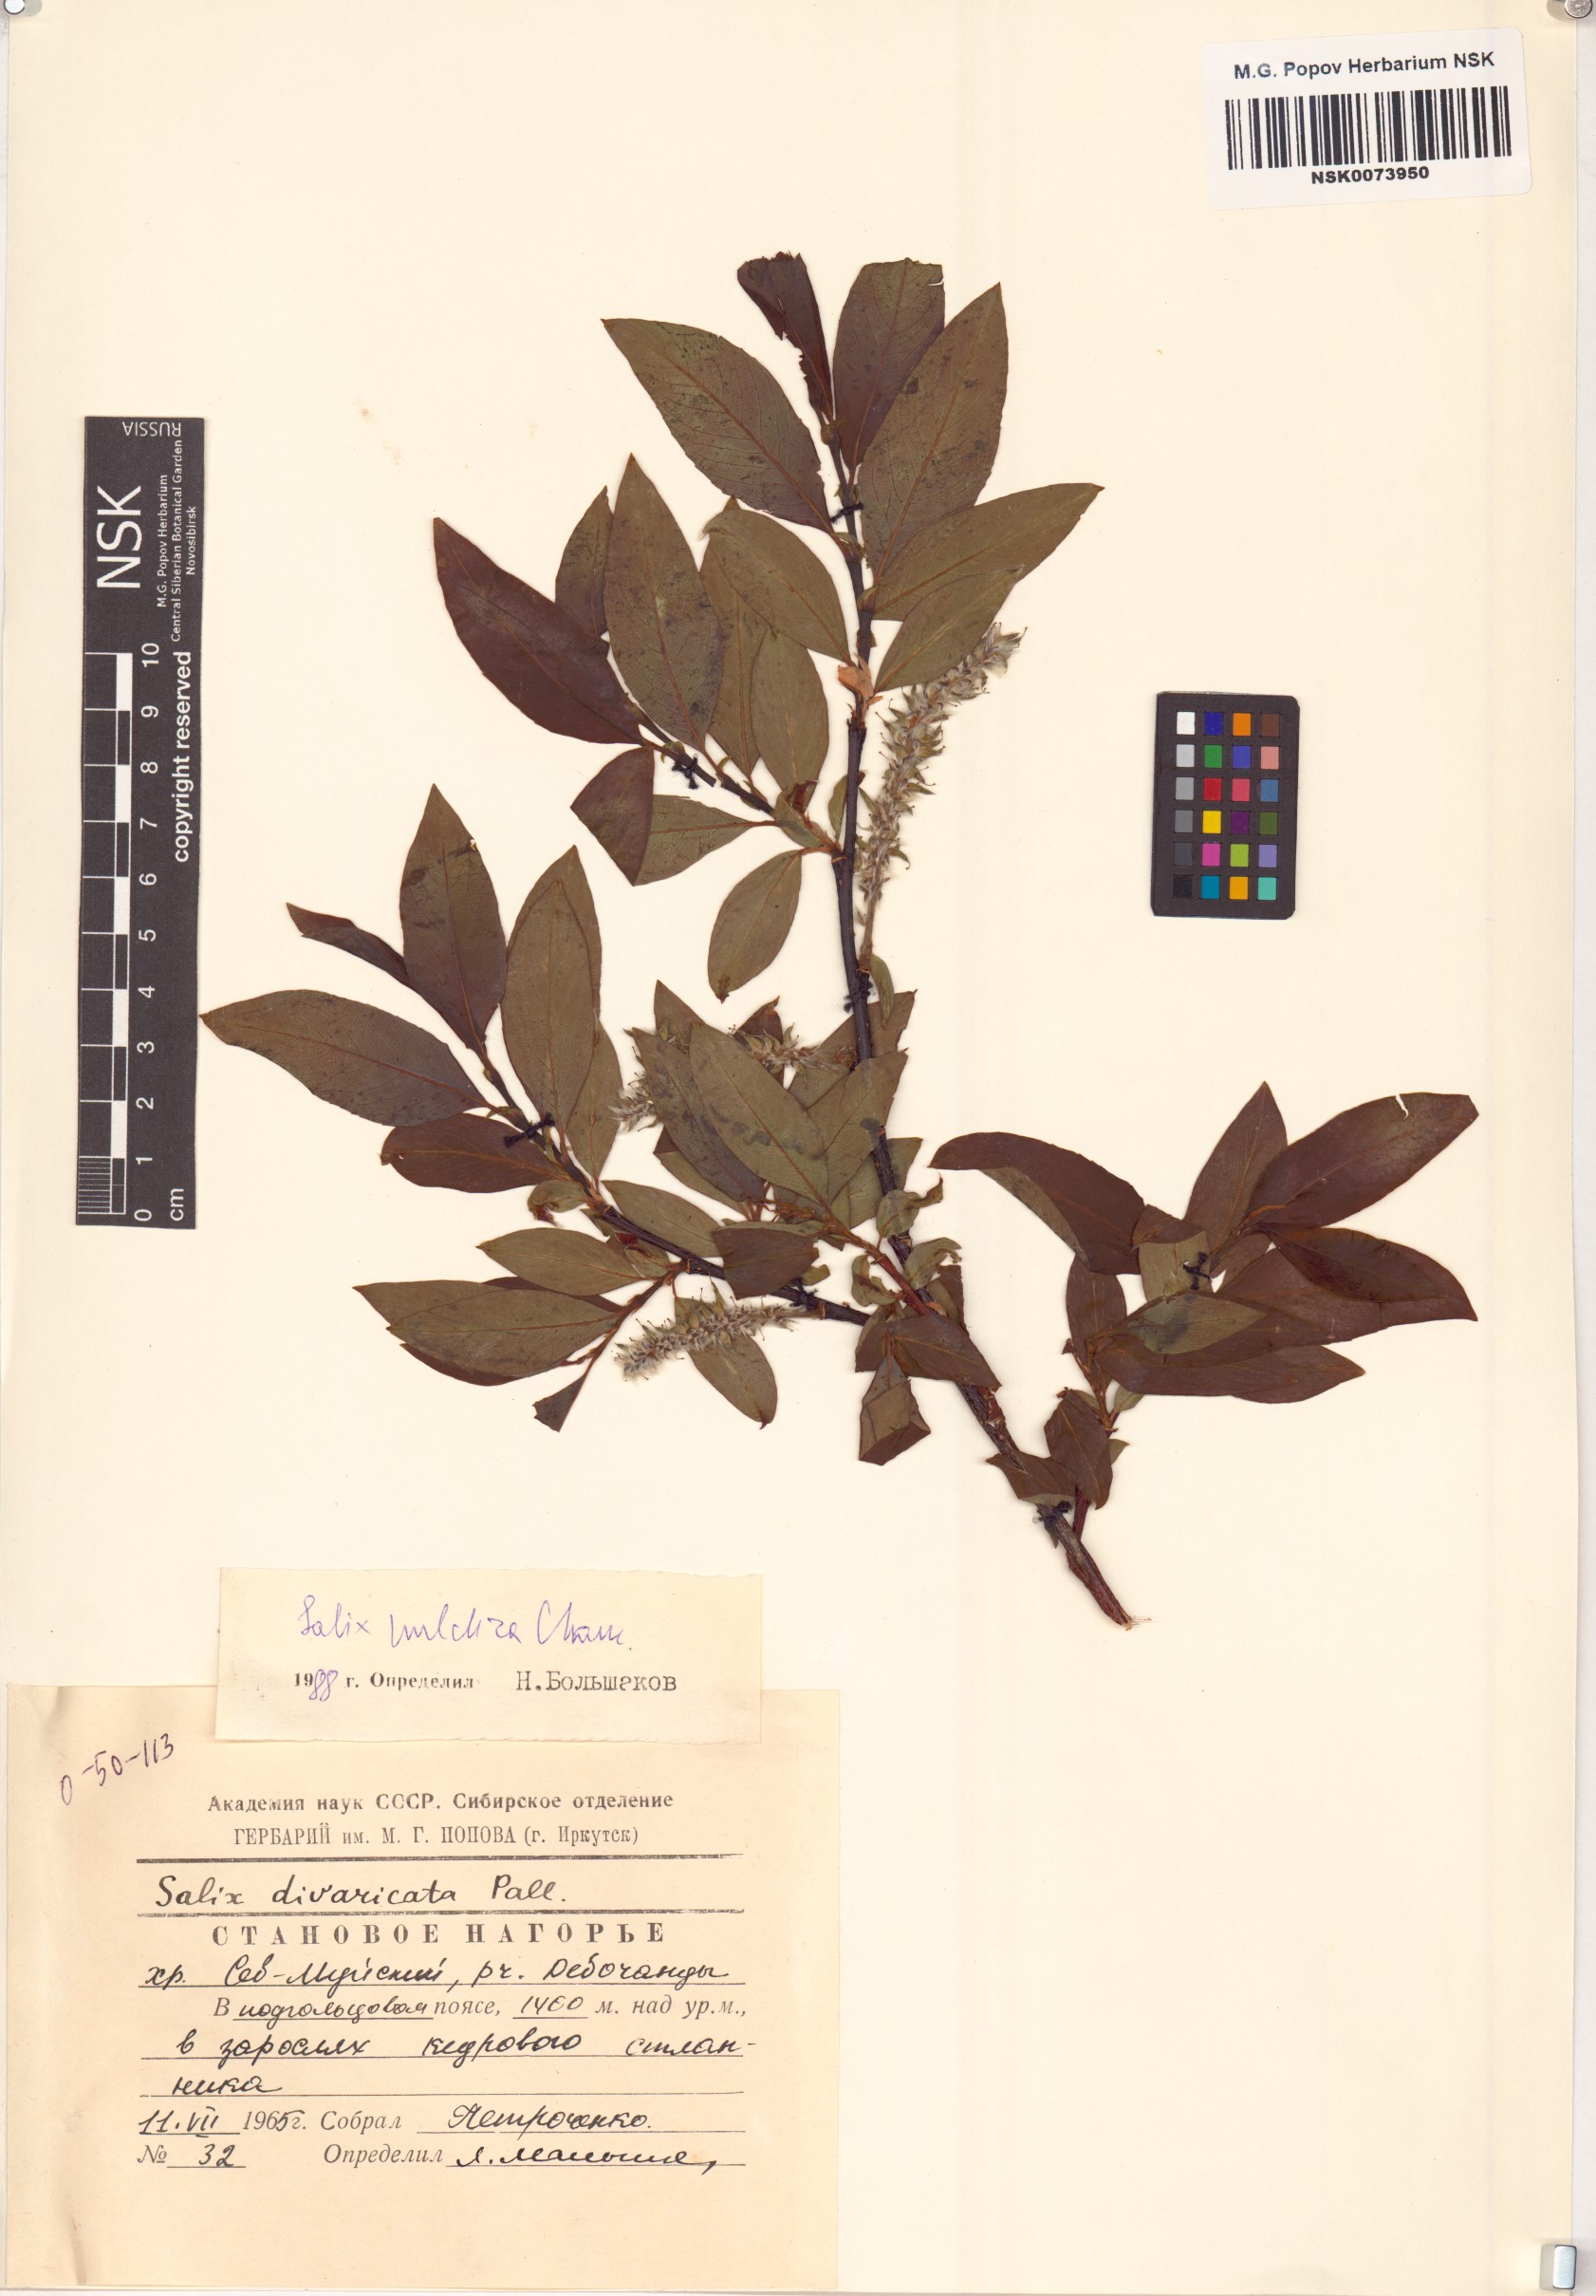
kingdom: Plantae
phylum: Tracheophyta
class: Magnoliopsida
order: Malpighiales
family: Salicaceae
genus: Salix
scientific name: Salix pulchra
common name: Diamond-leaved willow
